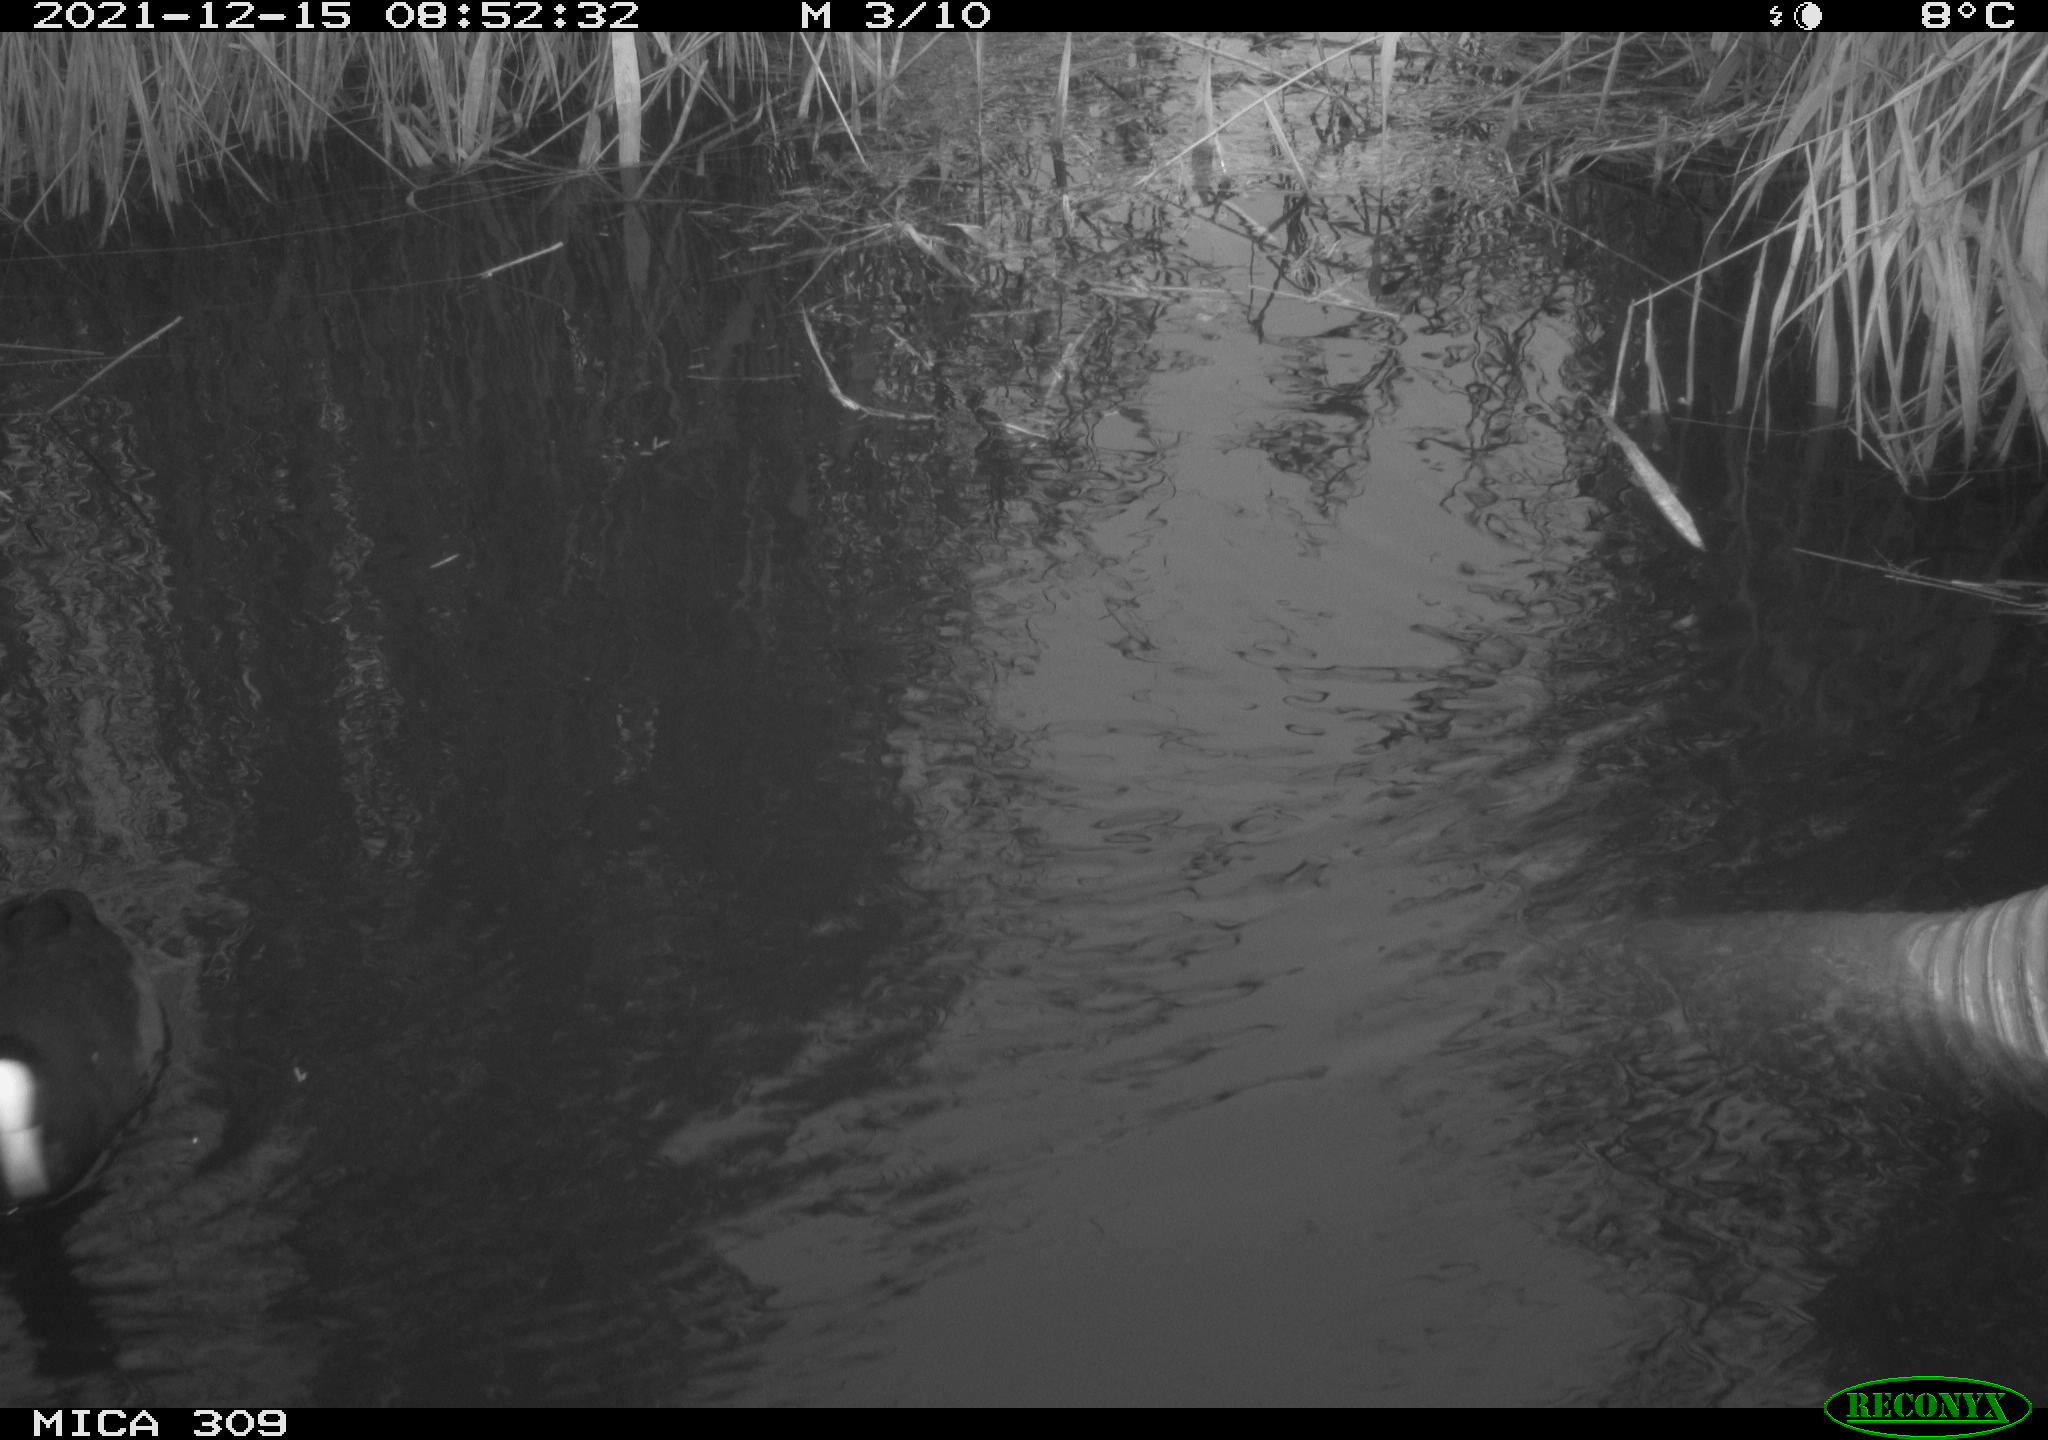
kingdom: Animalia
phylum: Chordata
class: Aves
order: Gruiformes
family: Rallidae
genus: Gallinula
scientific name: Gallinula chloropus
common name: Common moorhen
